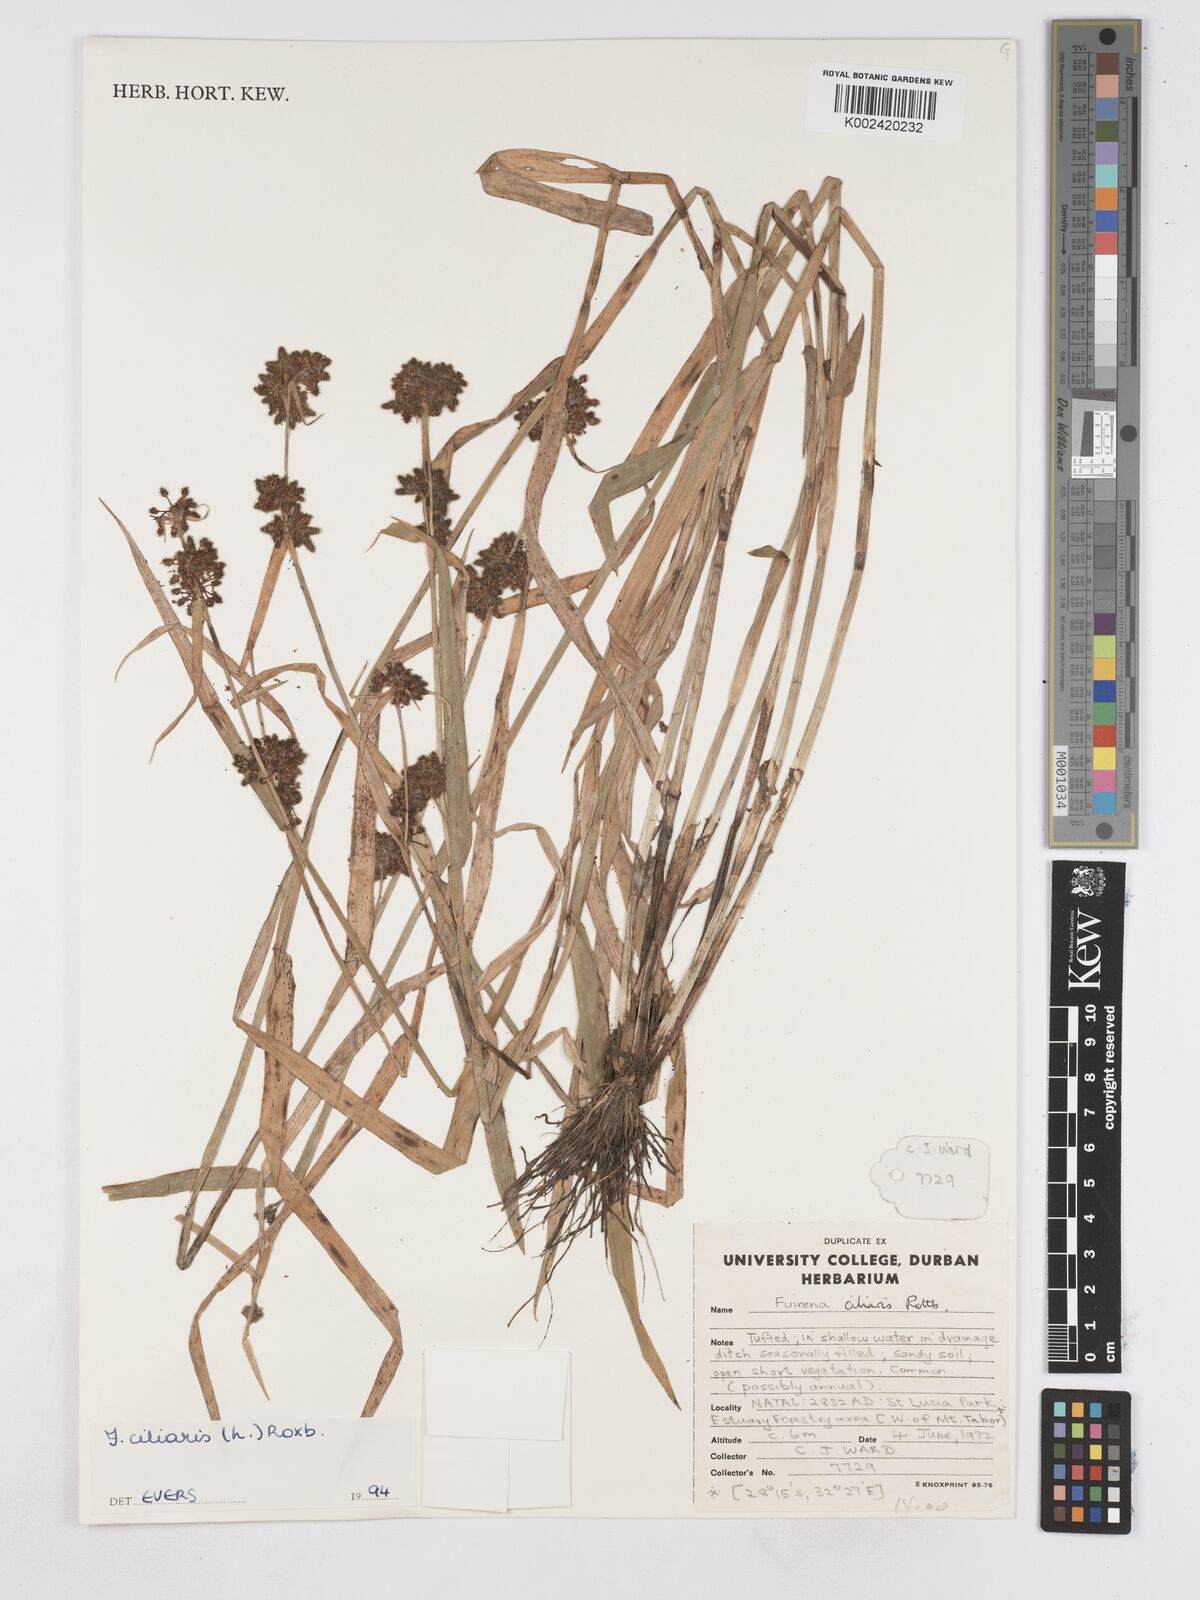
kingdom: Plantae
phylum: Tracheophyta
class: Liliopsida
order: Poales
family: Cyperaceae
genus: Fuirena
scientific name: Fuirena ciliaris
